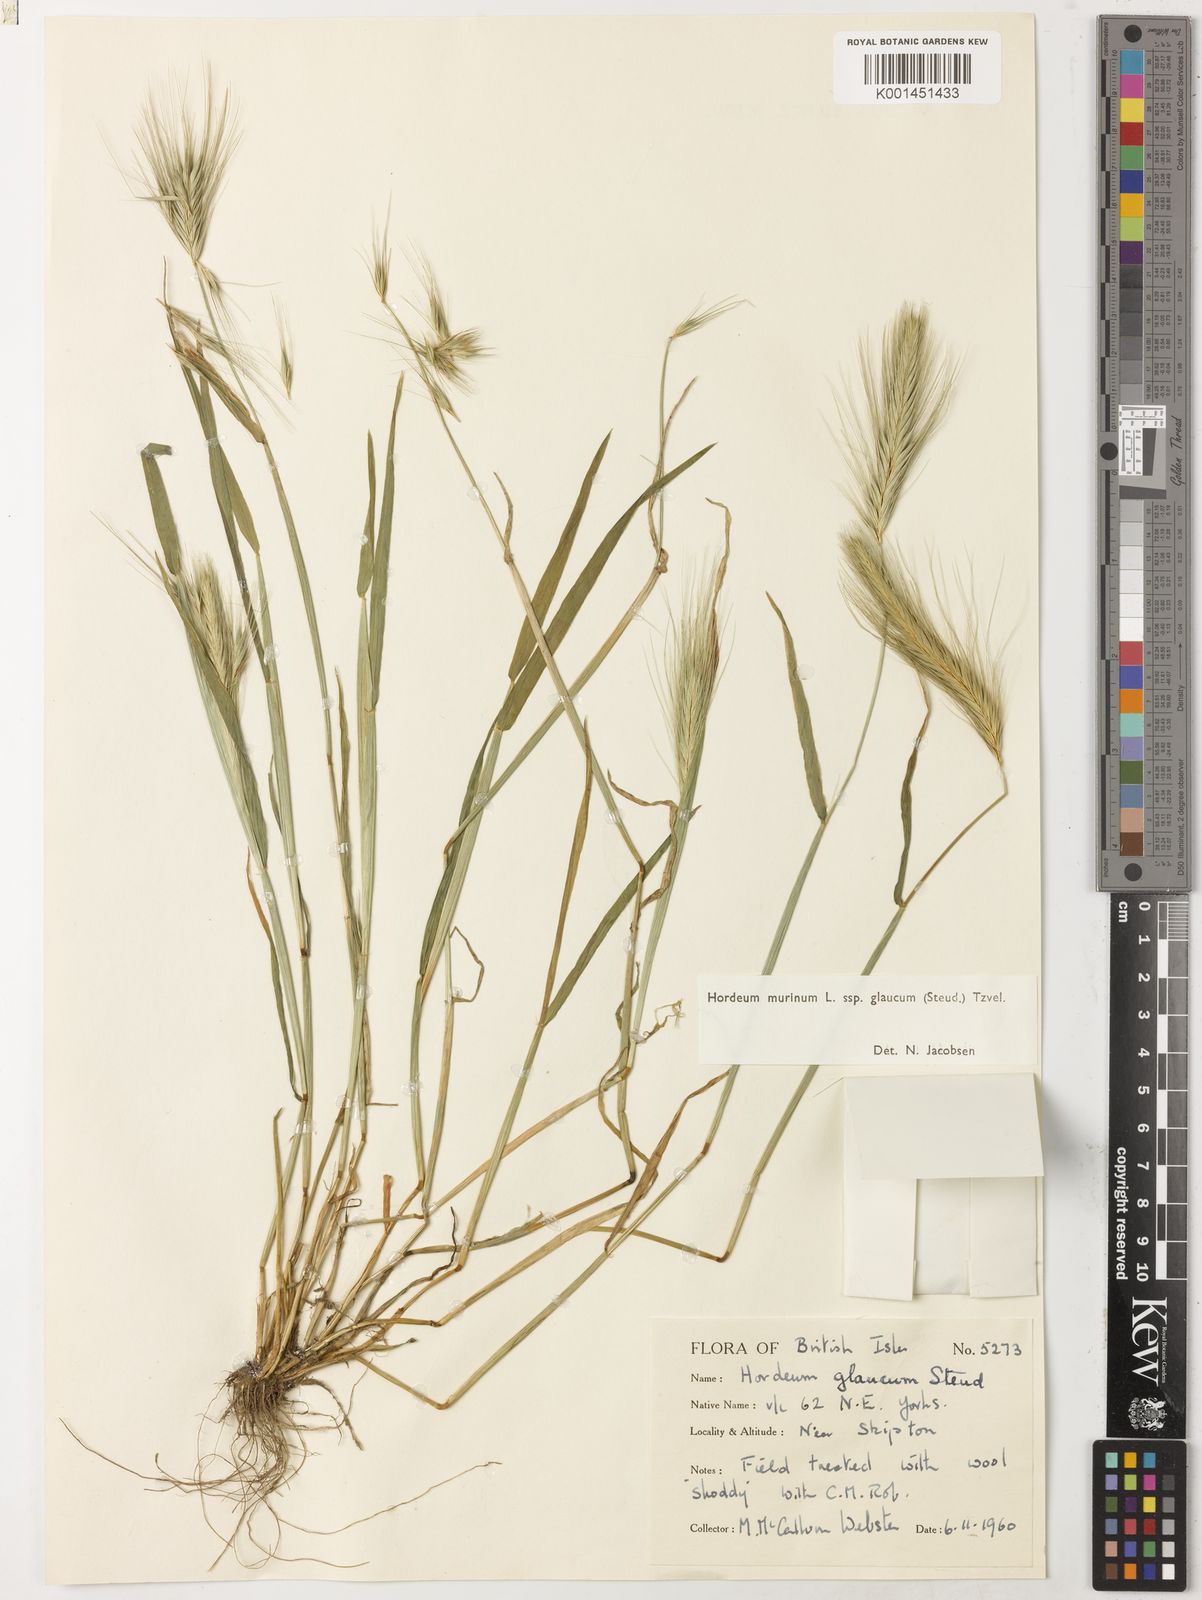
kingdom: Plantae
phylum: Tracheophyta
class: Liliopsida
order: Poales
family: Poaceae
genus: Hordeum
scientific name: Hordeum murinum
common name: Wall barley
